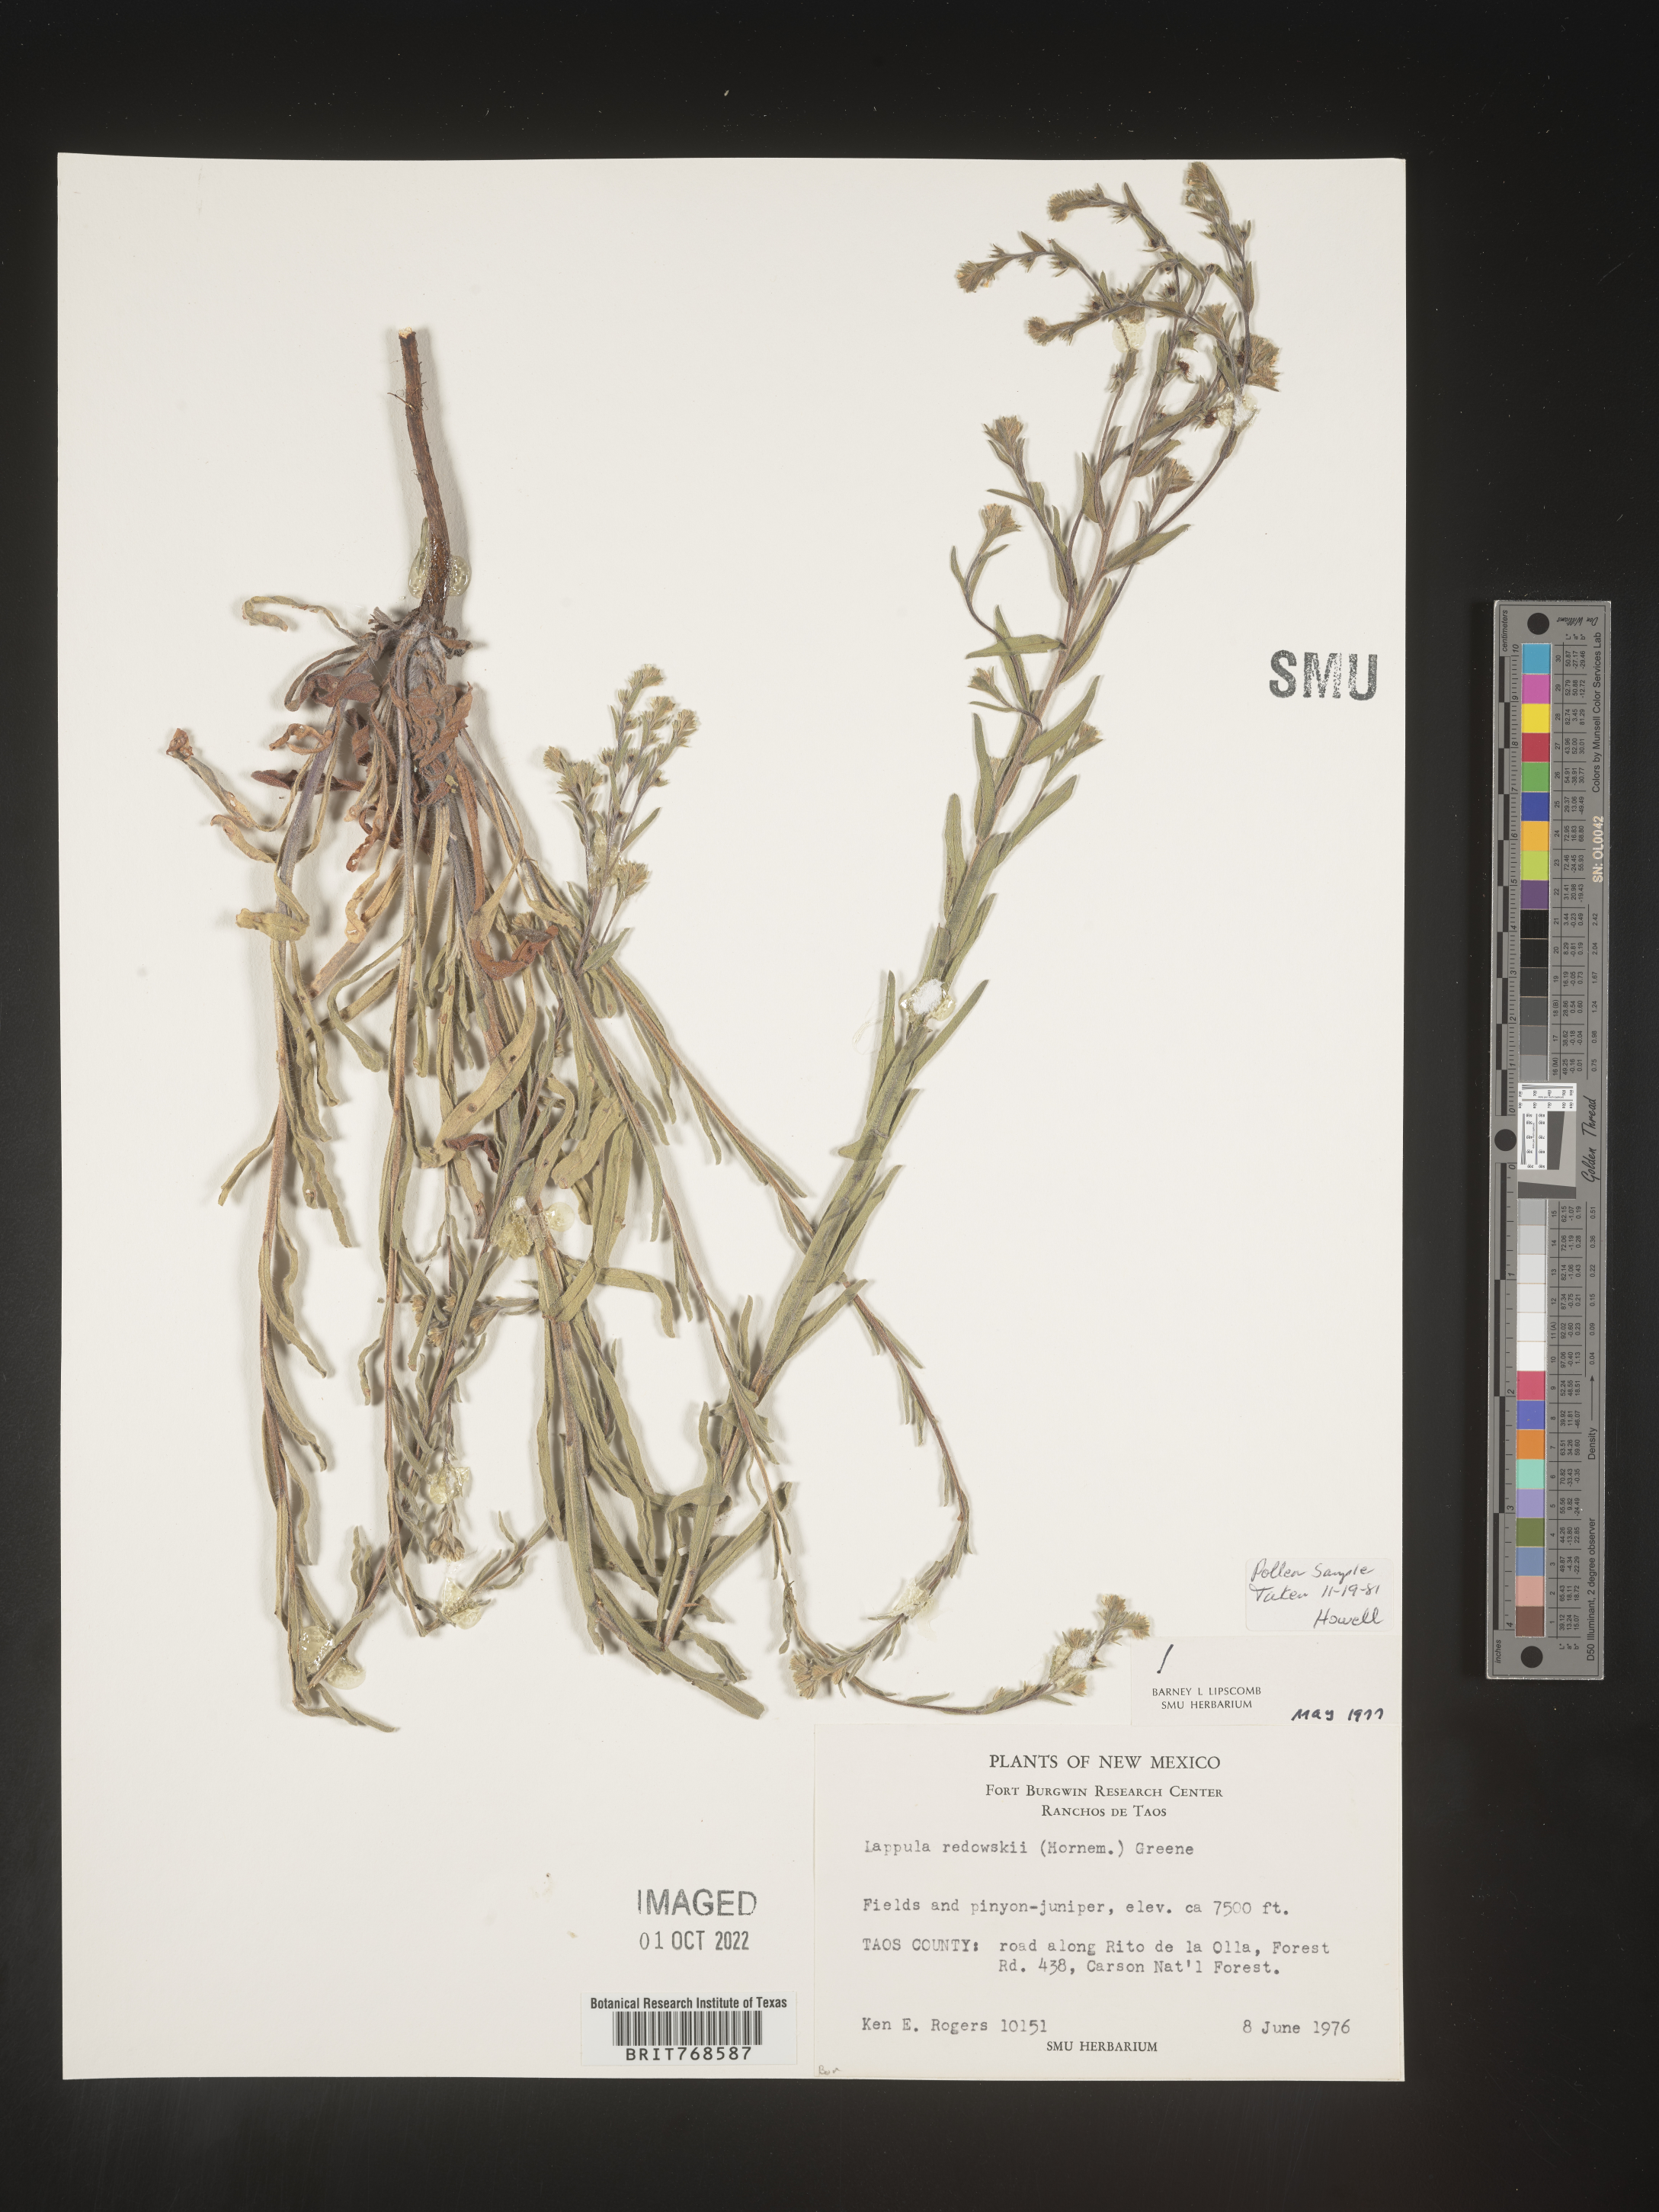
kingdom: Plantae
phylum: Tracheophyta
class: Magnoliopsida
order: Boraginales
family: Boraginaceae
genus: Lappula
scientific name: Lappula redowskii
